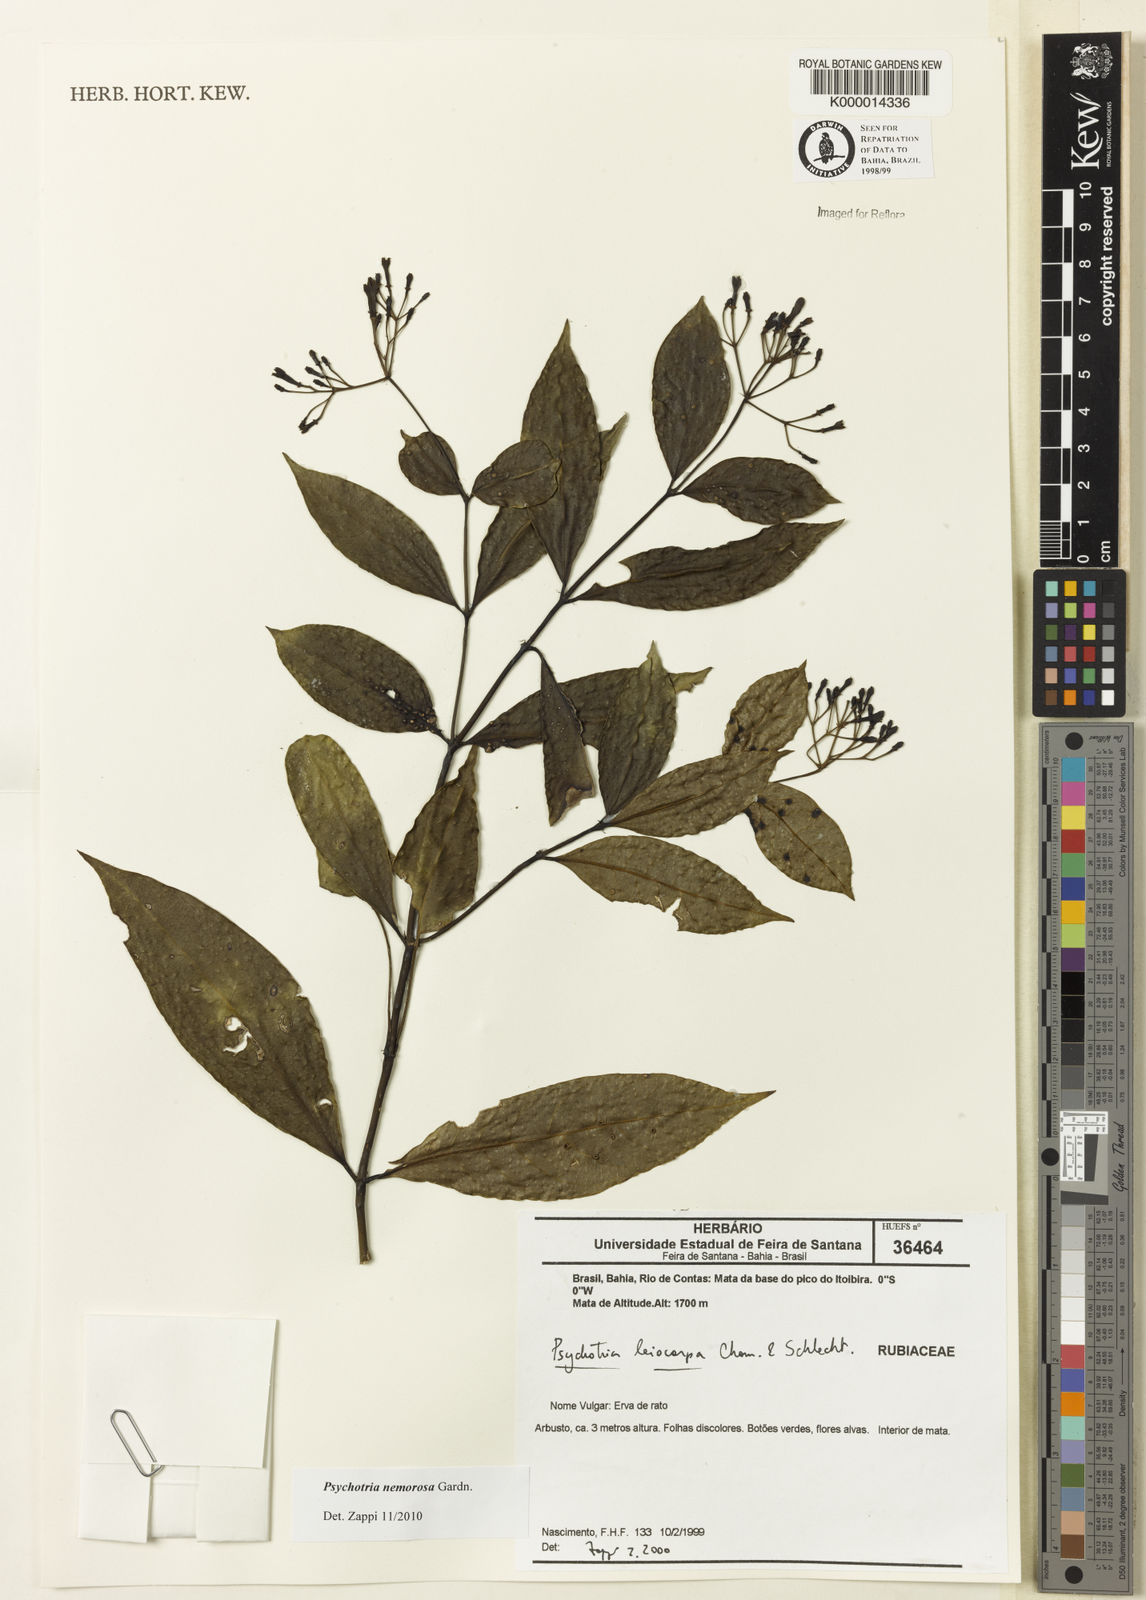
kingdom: Plantae
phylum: Tracheophyta
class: Magnoliopsida
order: Gentianales
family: Rubiaceae
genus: Psychotria
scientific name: Psychotria nemorosa
